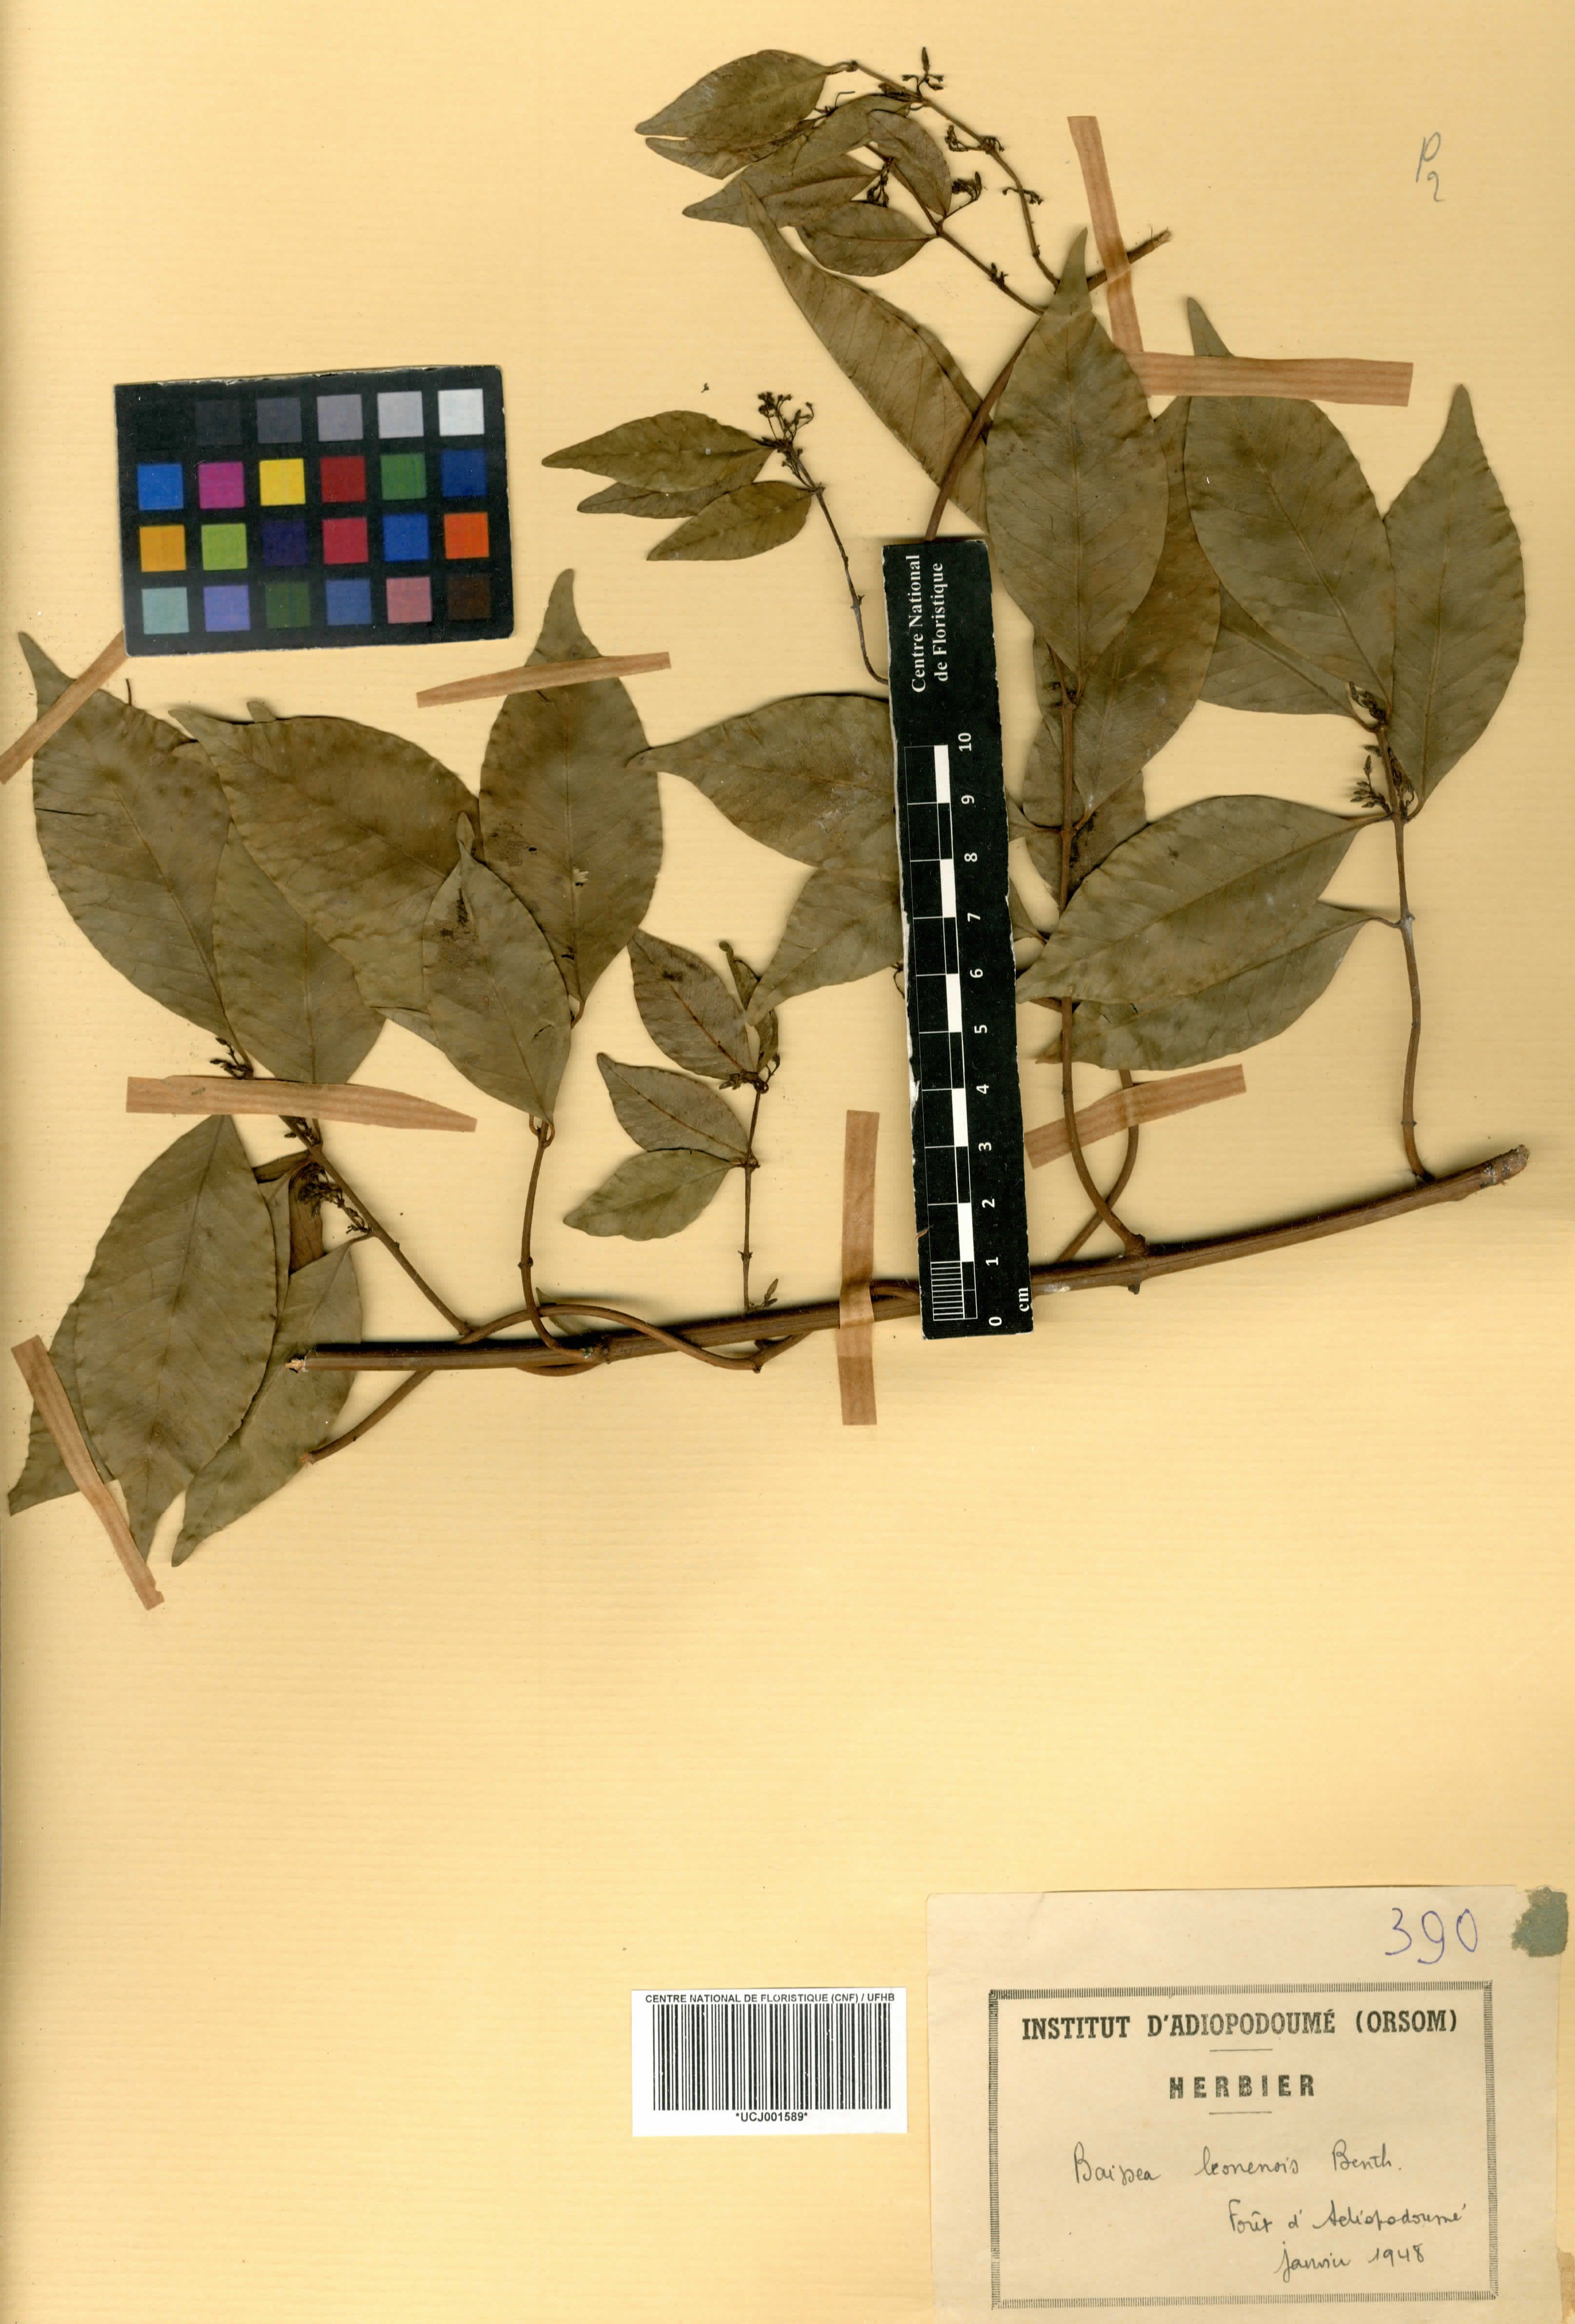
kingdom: Plantae
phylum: Tracheophyta
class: Magnoliopsida
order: Gentianales
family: Apocynaceae
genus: Baissea
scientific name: Baissea leonensis
